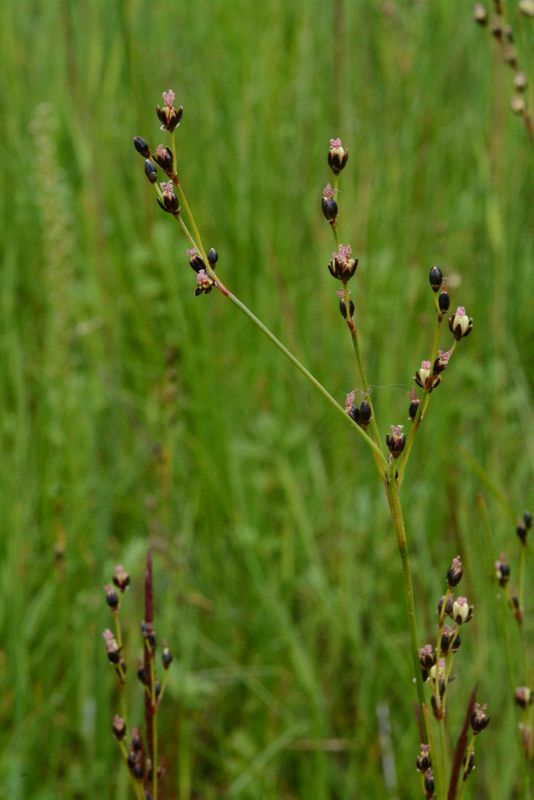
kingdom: Plantae
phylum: Tracheophyta
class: Liliopsida
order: Poales
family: Juncaceae
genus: Juncus
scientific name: Juncus gerardi
